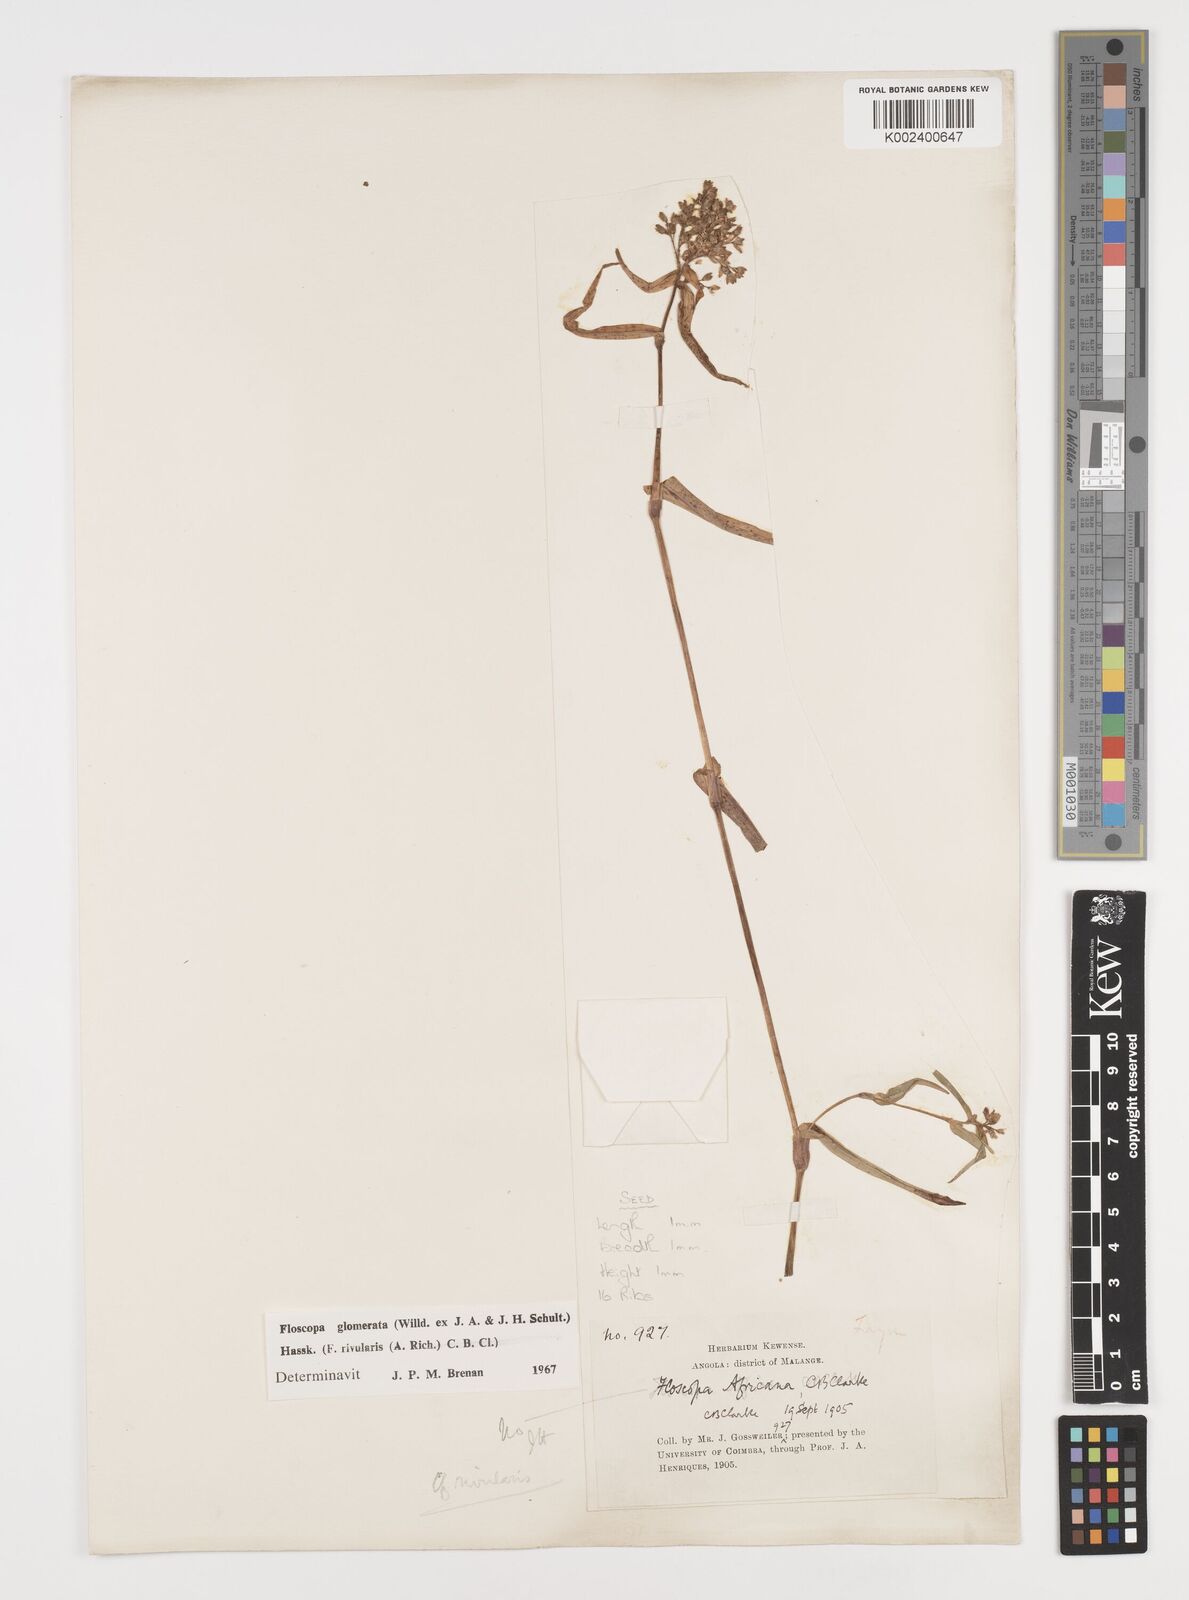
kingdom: Plantae
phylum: Tracheophyta
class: Liliopsida
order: Commelinales
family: Commelinaceae
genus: Floscopa
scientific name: Floscopa glomerata
